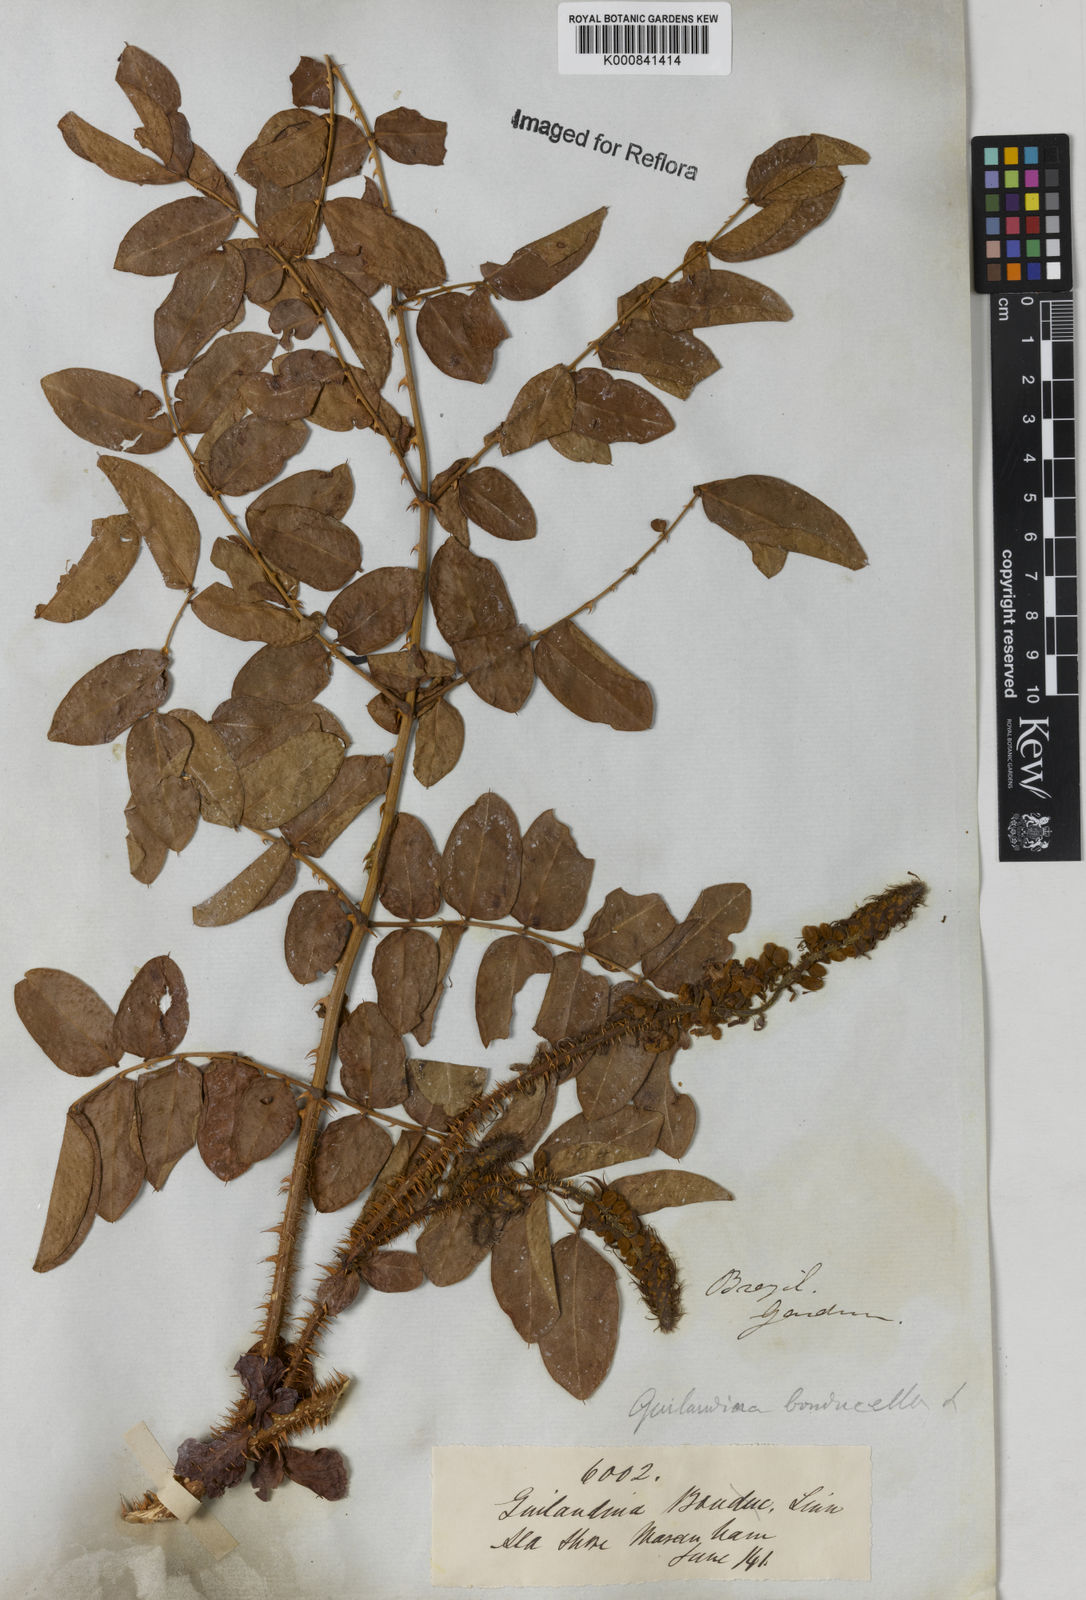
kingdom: Plantae
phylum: Tracheophyta
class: Magnoliopsida
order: Fabales
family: Fabaceae
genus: Guilandina
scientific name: Guilandina bonduc
